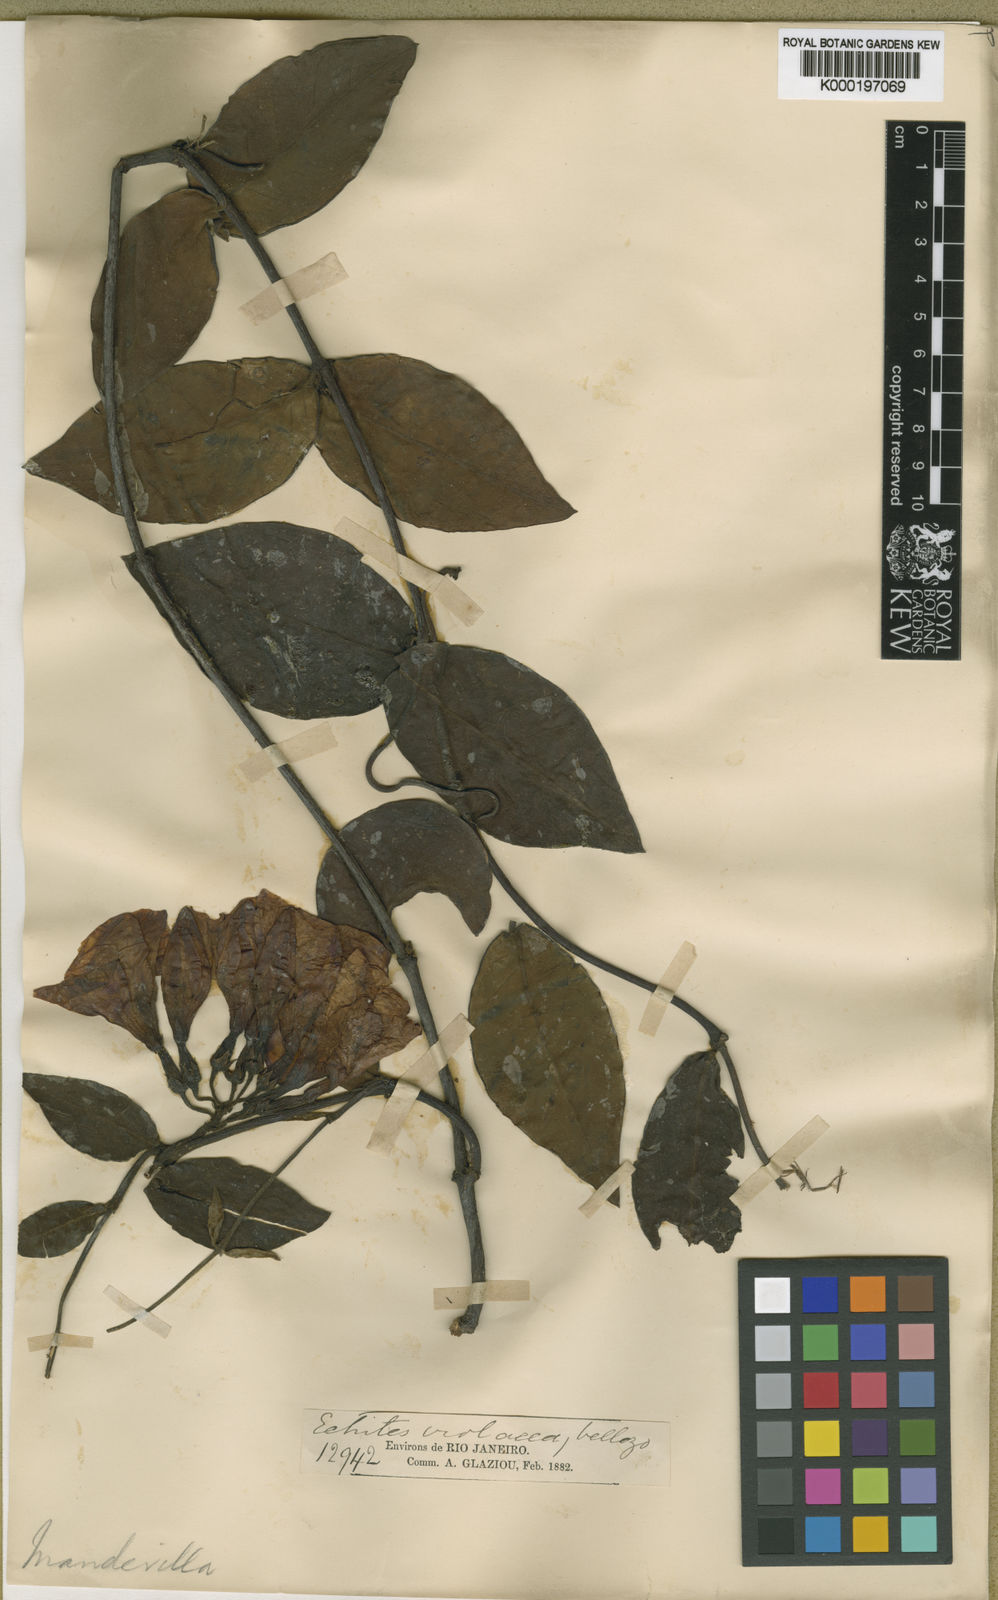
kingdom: Plantae
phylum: Tracheophyta
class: Magnoliopsida
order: Gentianales
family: Apocynaceae
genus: Temnadenia
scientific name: Temnadenia violacea
